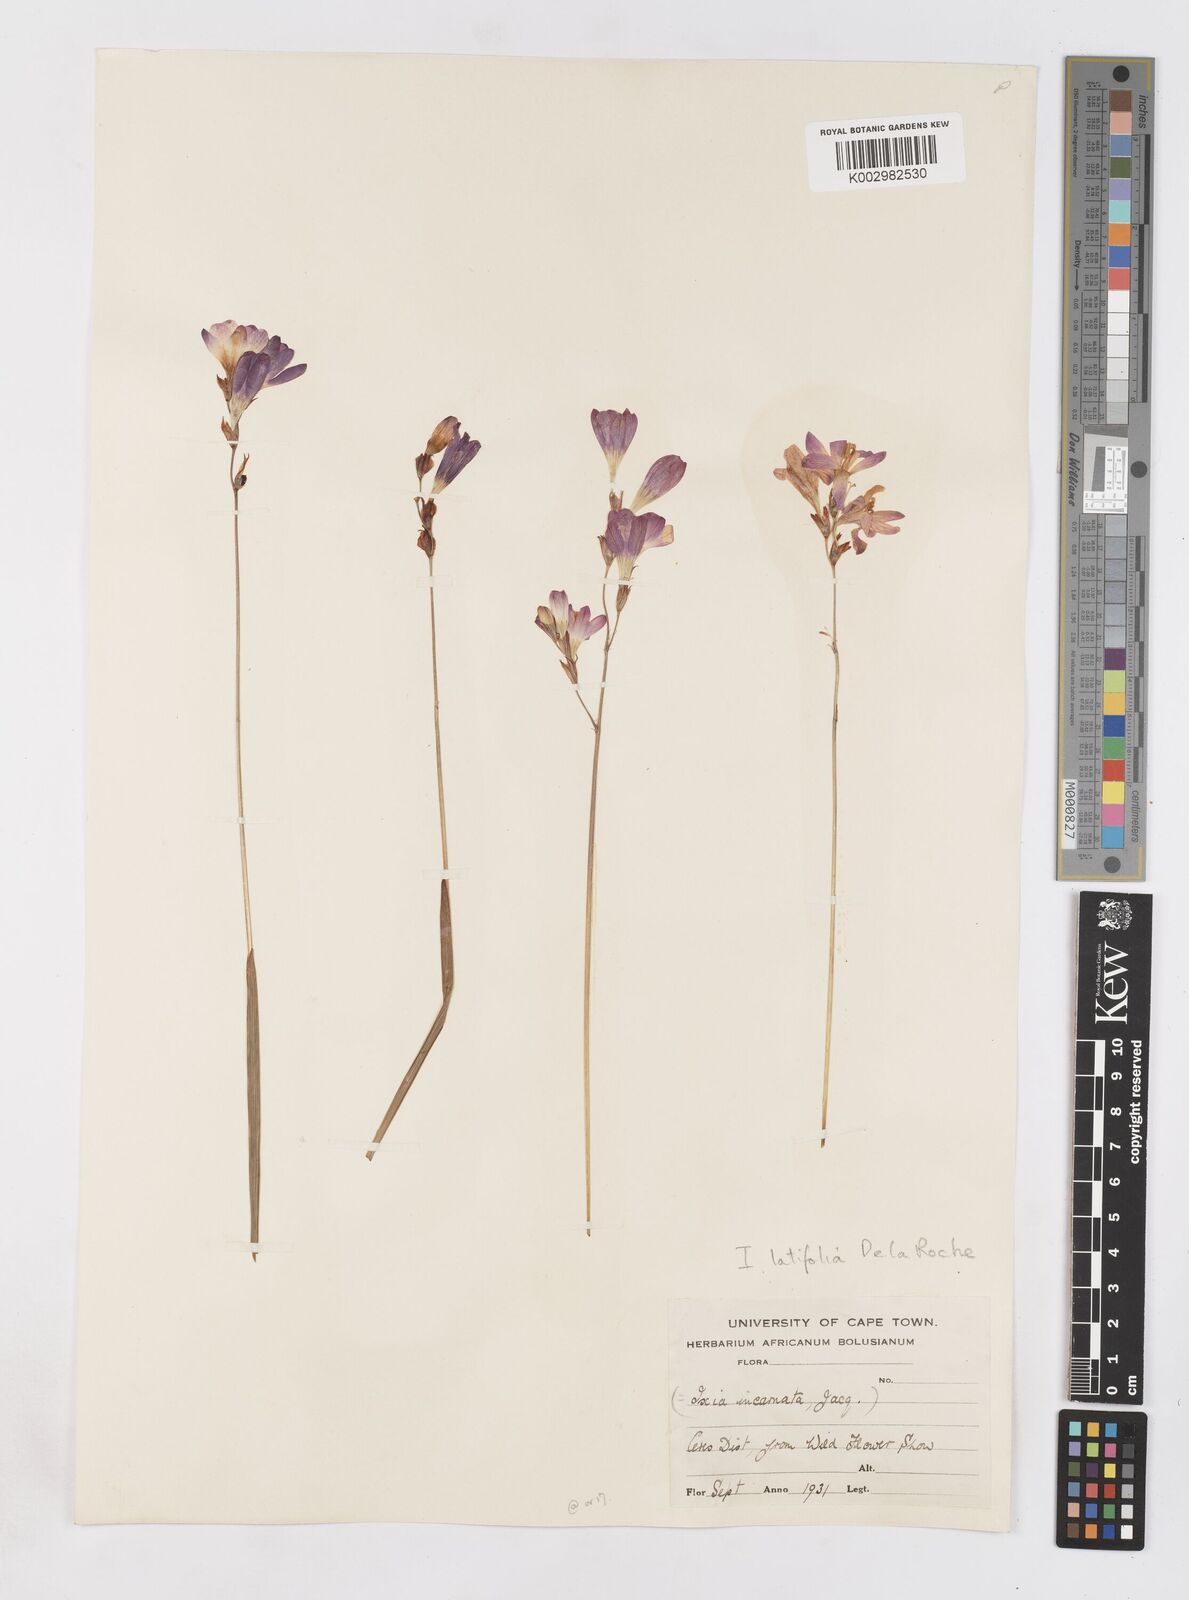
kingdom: Plantae
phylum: Tracheophyta
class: Liliopsida
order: Asparagales
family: Iridaceae
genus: Ixia
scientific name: Ixia latifolia
